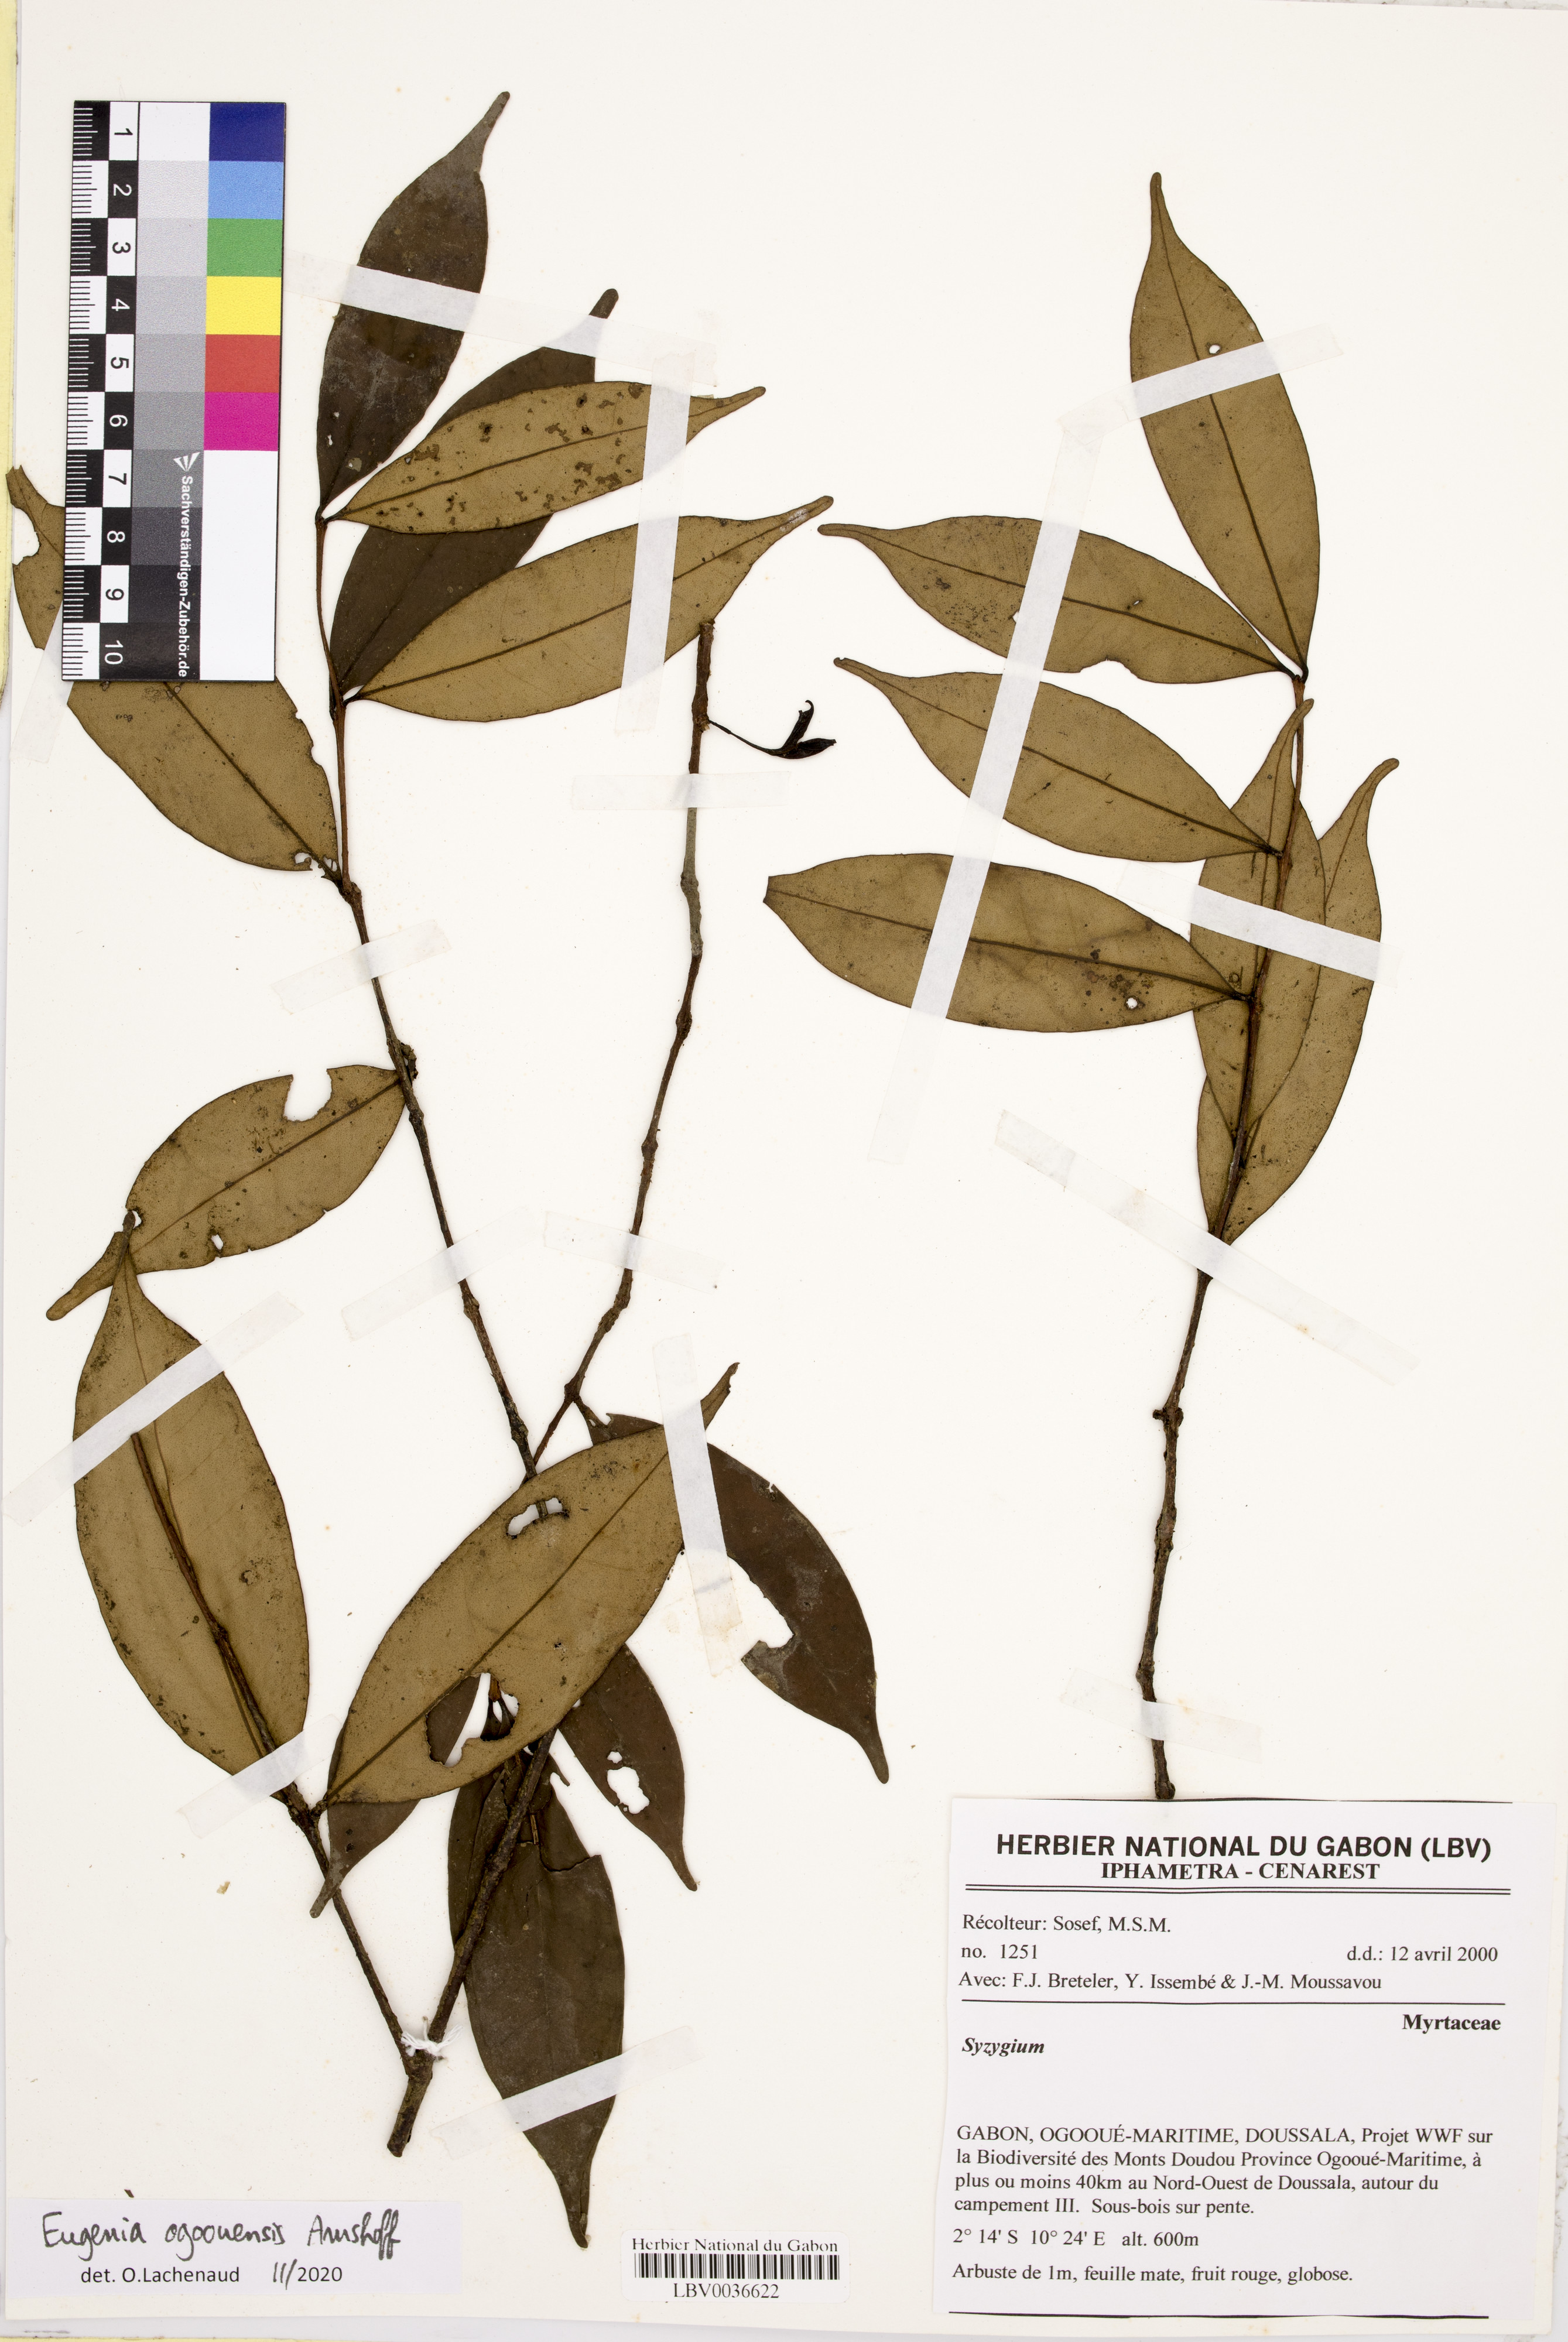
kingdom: Plantae
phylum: Tracheophyta
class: Magnoliopsida
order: Myrtales
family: Myrtaceae
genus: Syzygium
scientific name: Syzygium
